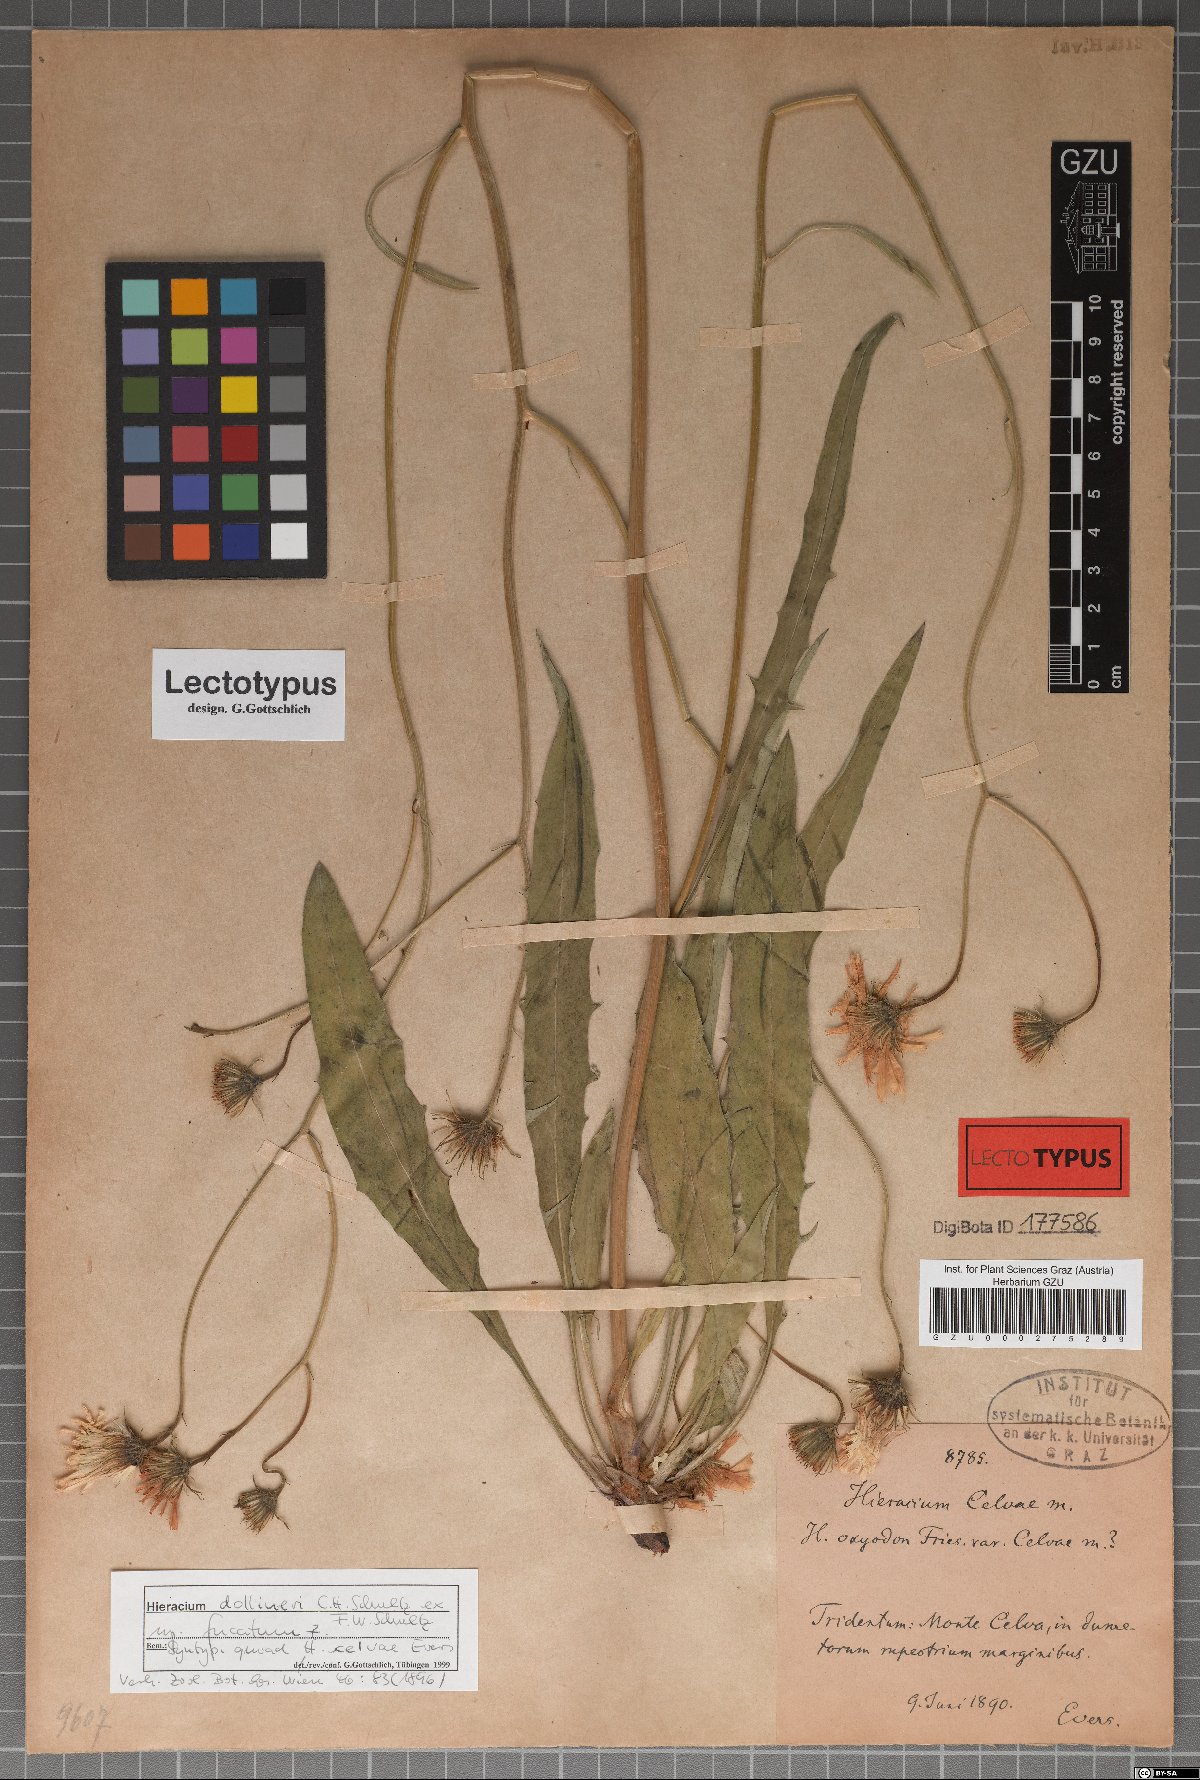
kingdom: Plantae
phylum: Tracheophyta
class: Magnoliopsida
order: Asterales
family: Asteraceae
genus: Hieracium
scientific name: Hieracium celvae
